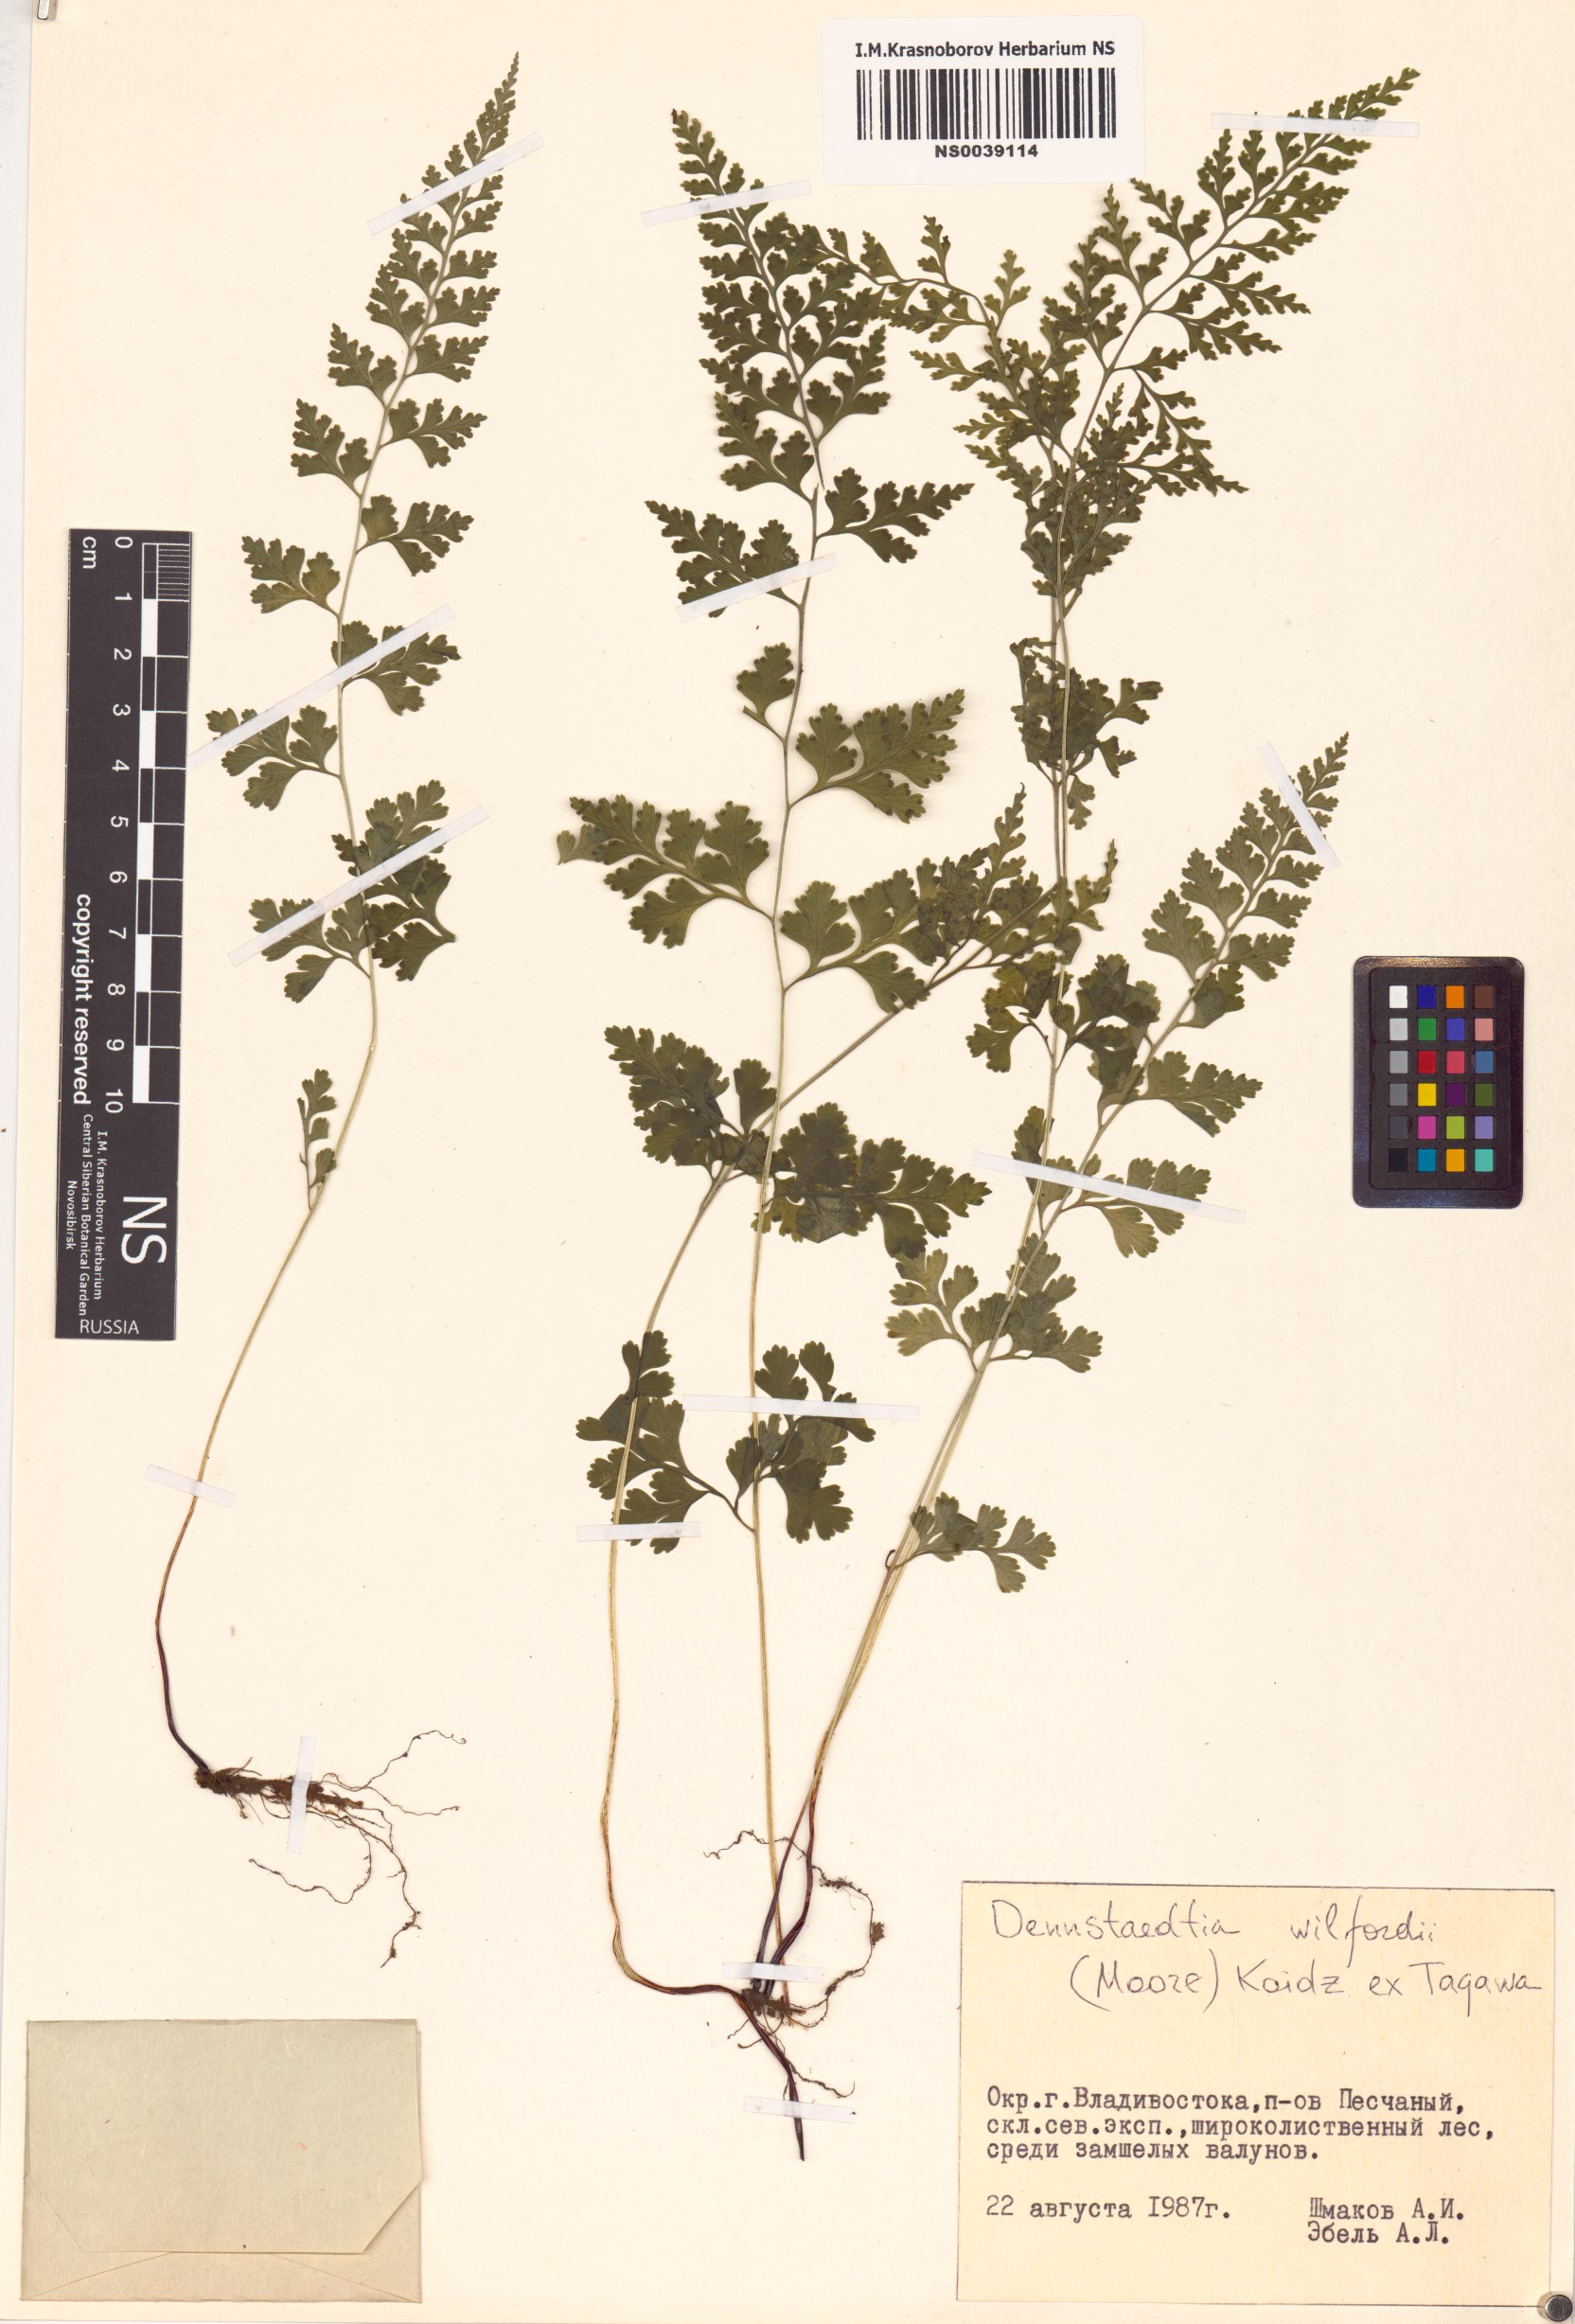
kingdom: Plantae
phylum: Tracheophyta
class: Polypodiopsida
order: Polypodiales
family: Dennstaedtiaceae
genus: Sitobolium
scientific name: Sitobolium wilfordii
